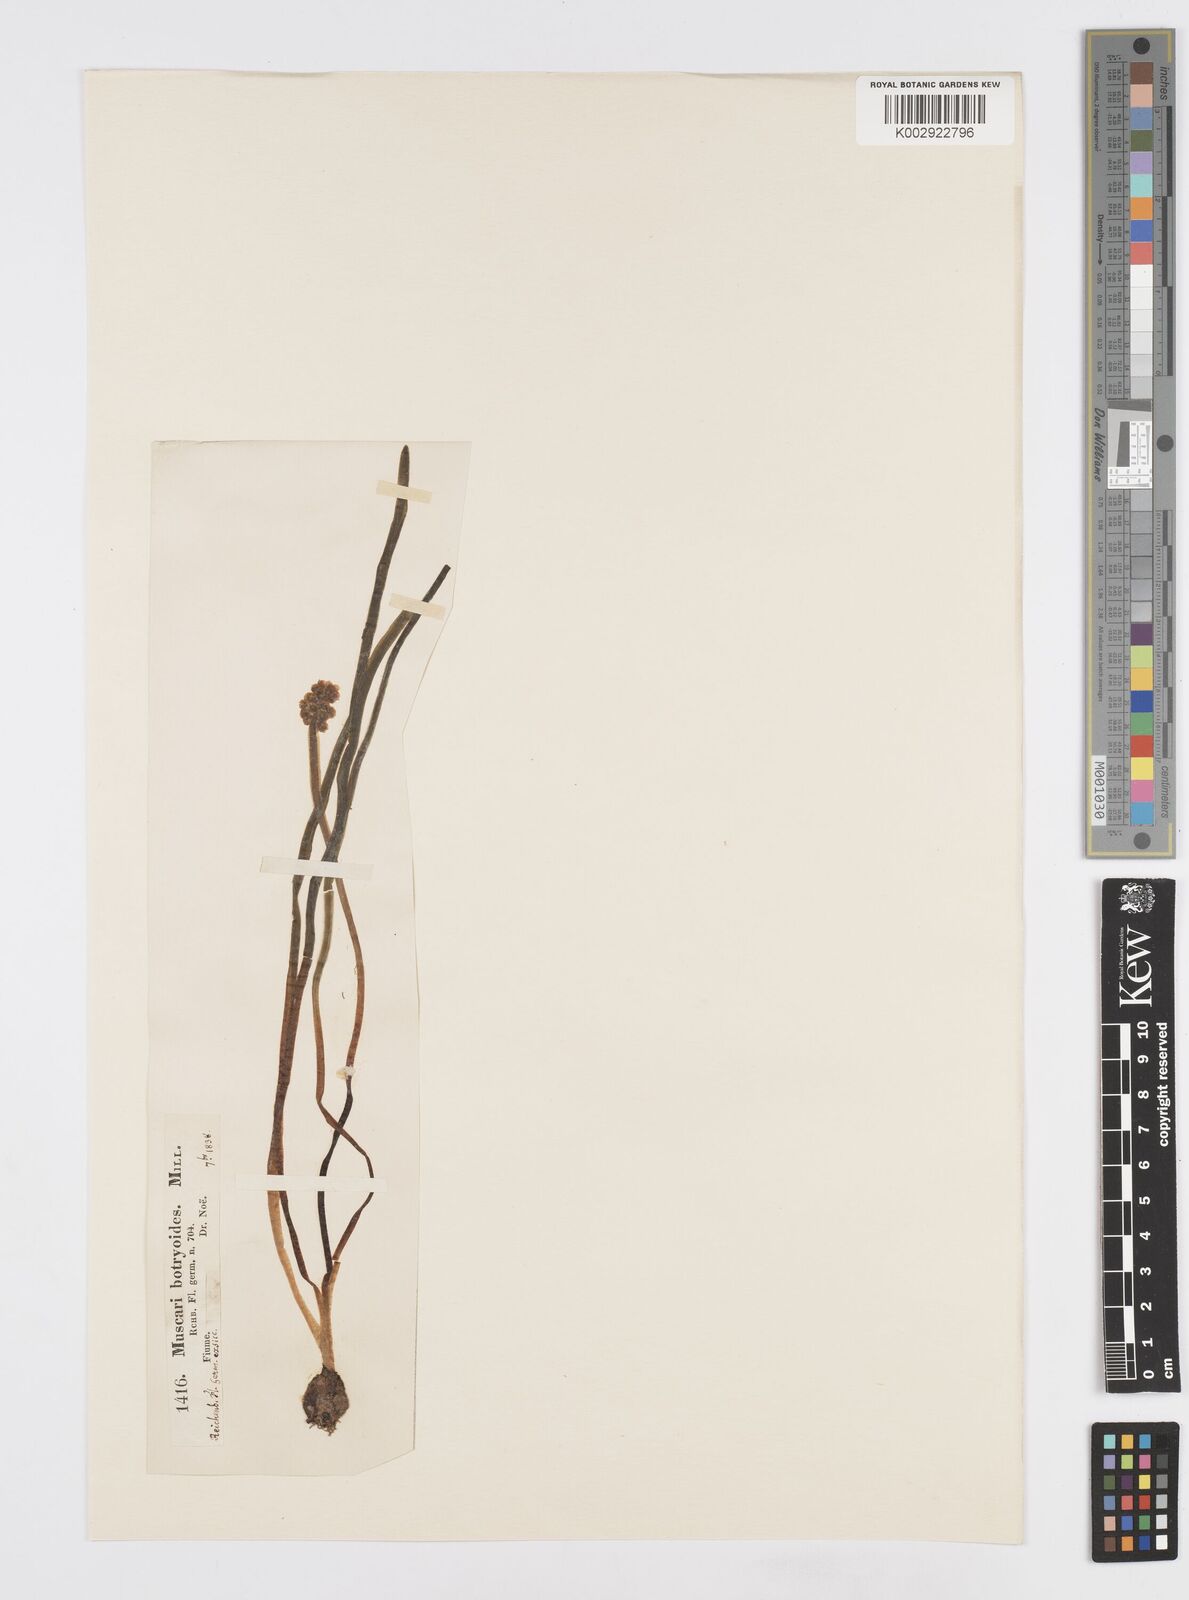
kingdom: Plantae
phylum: Tracheophyta
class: Liliopsida
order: Asparagales
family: Asparagaceae
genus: Muscari
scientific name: Muscari botryoides
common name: Compact grape-hyacinth
